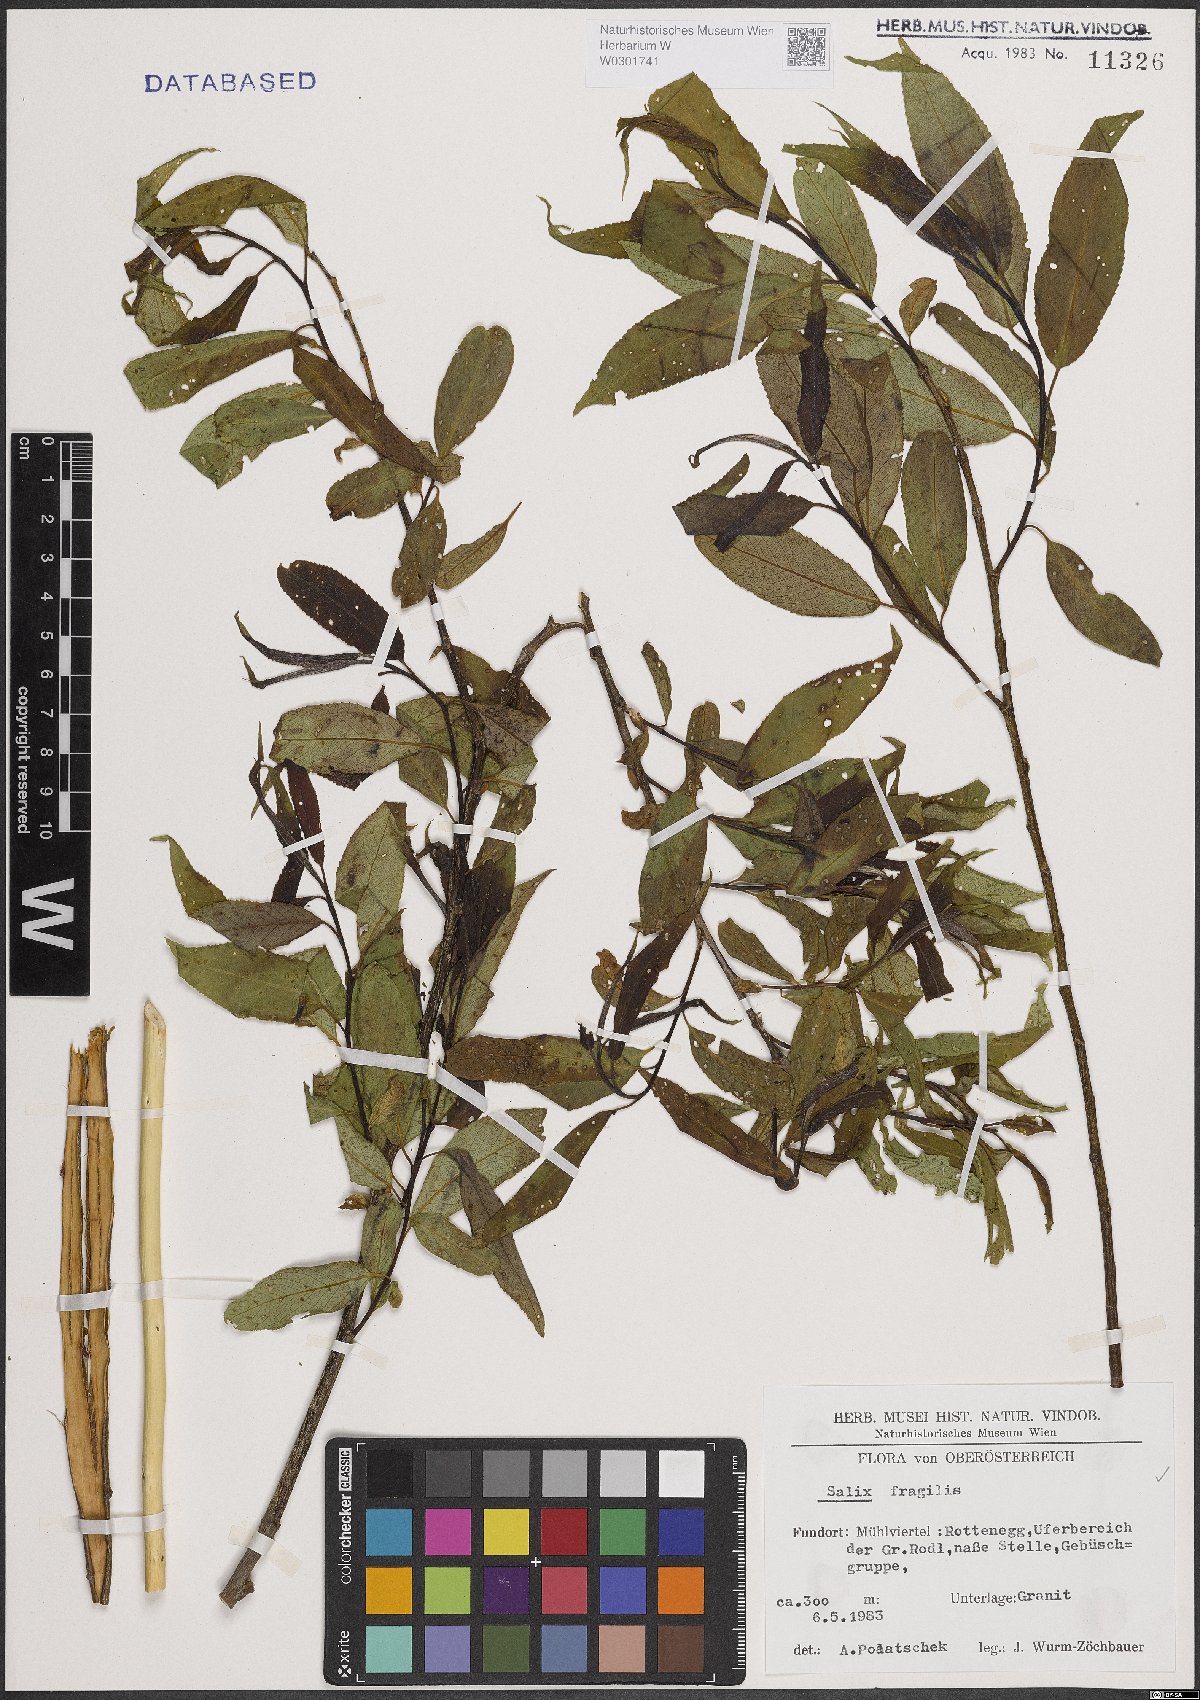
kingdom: Plantae
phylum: Tracheophyta
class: Magnoliopsida
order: Malpighiales
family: Salicaceae
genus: Salix
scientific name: Salix fragilis
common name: Crack willow
